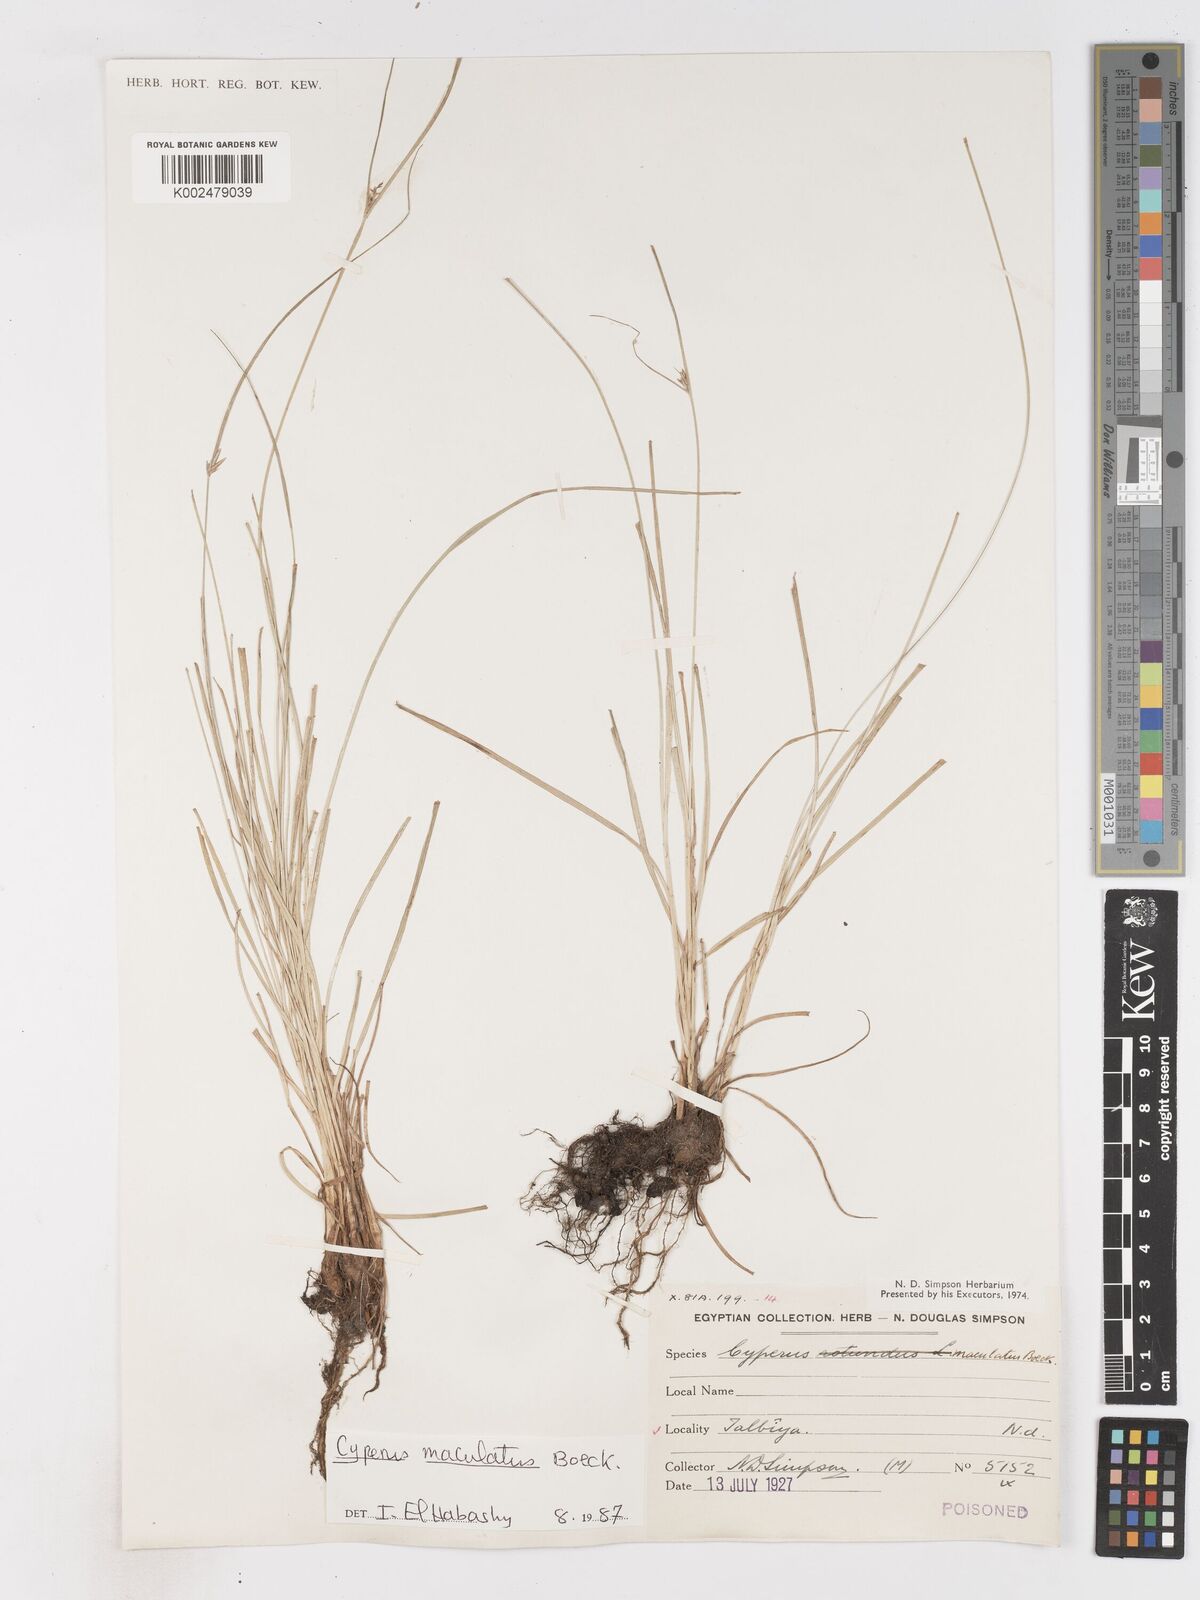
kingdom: Plantae
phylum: Tracheophyta
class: Liliopsida
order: Poales
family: Cyperaceae
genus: Cyperus
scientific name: Cyperus maculatus
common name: Maculated sedge
